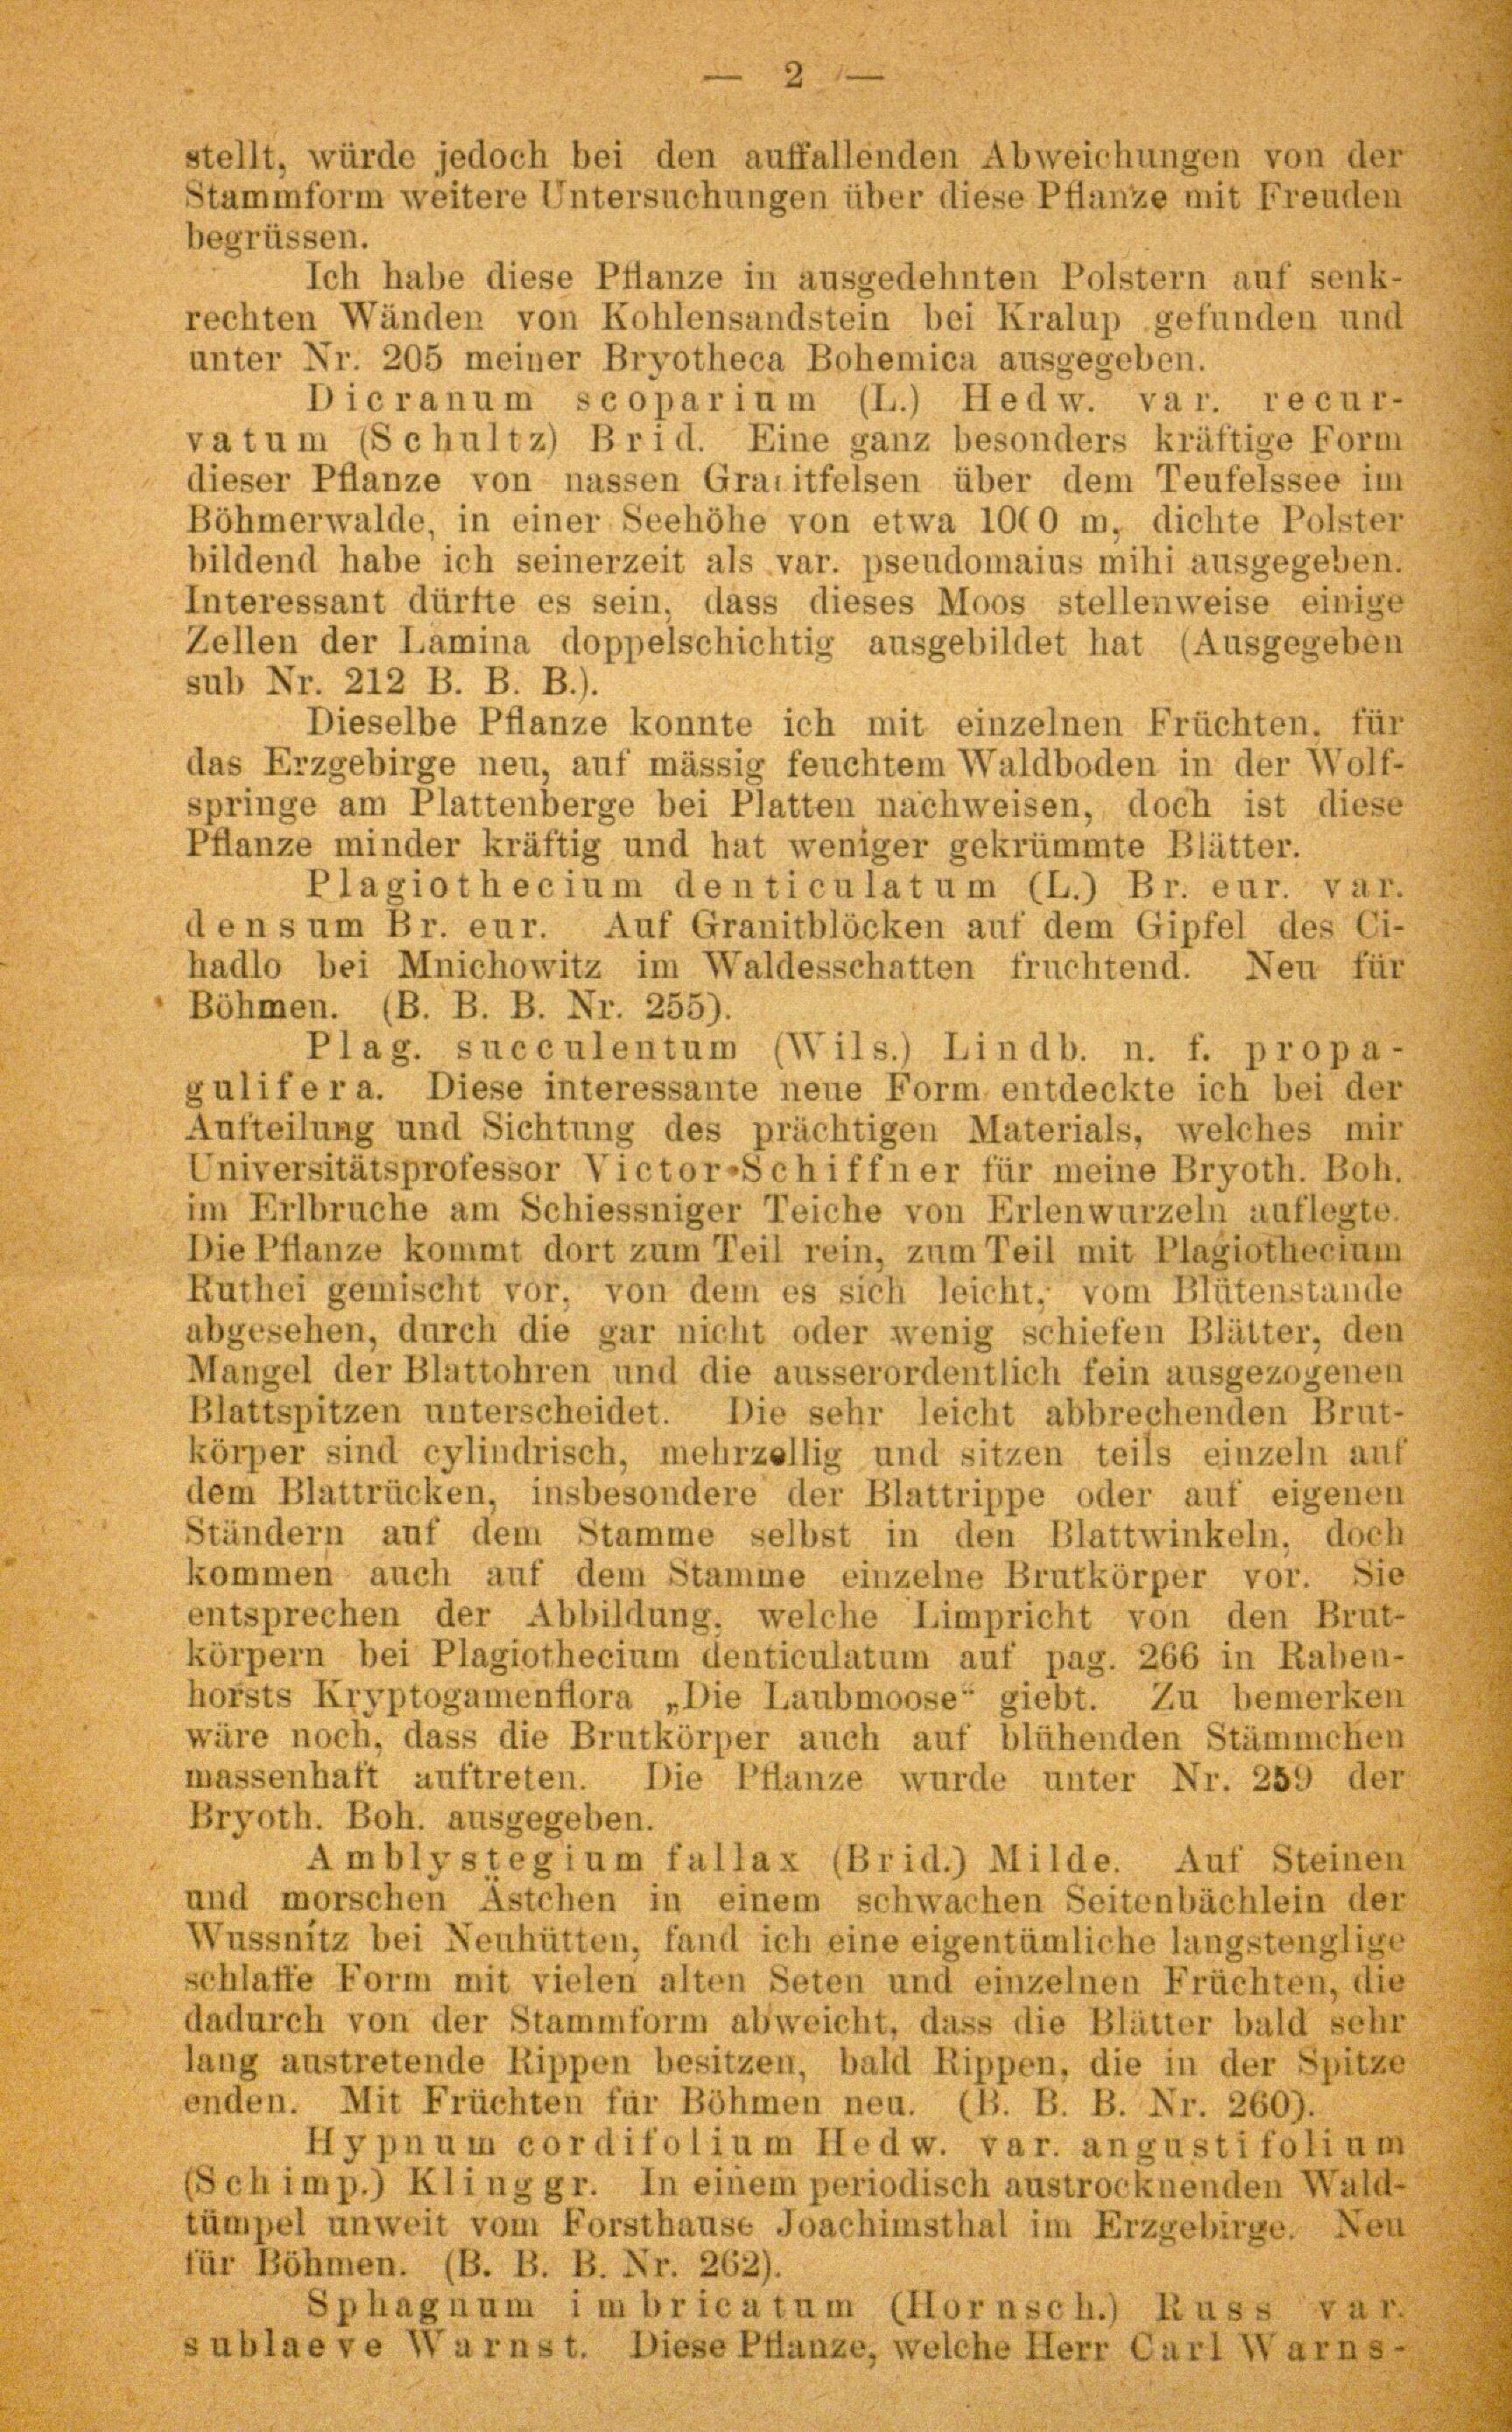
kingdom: Plantae
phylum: Bryophyta
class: Bryopsida
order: Hypnales
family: Plagiotheciaceae
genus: Plagiothecium
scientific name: Plagiothecium succulentum
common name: Juicy silk-moss
